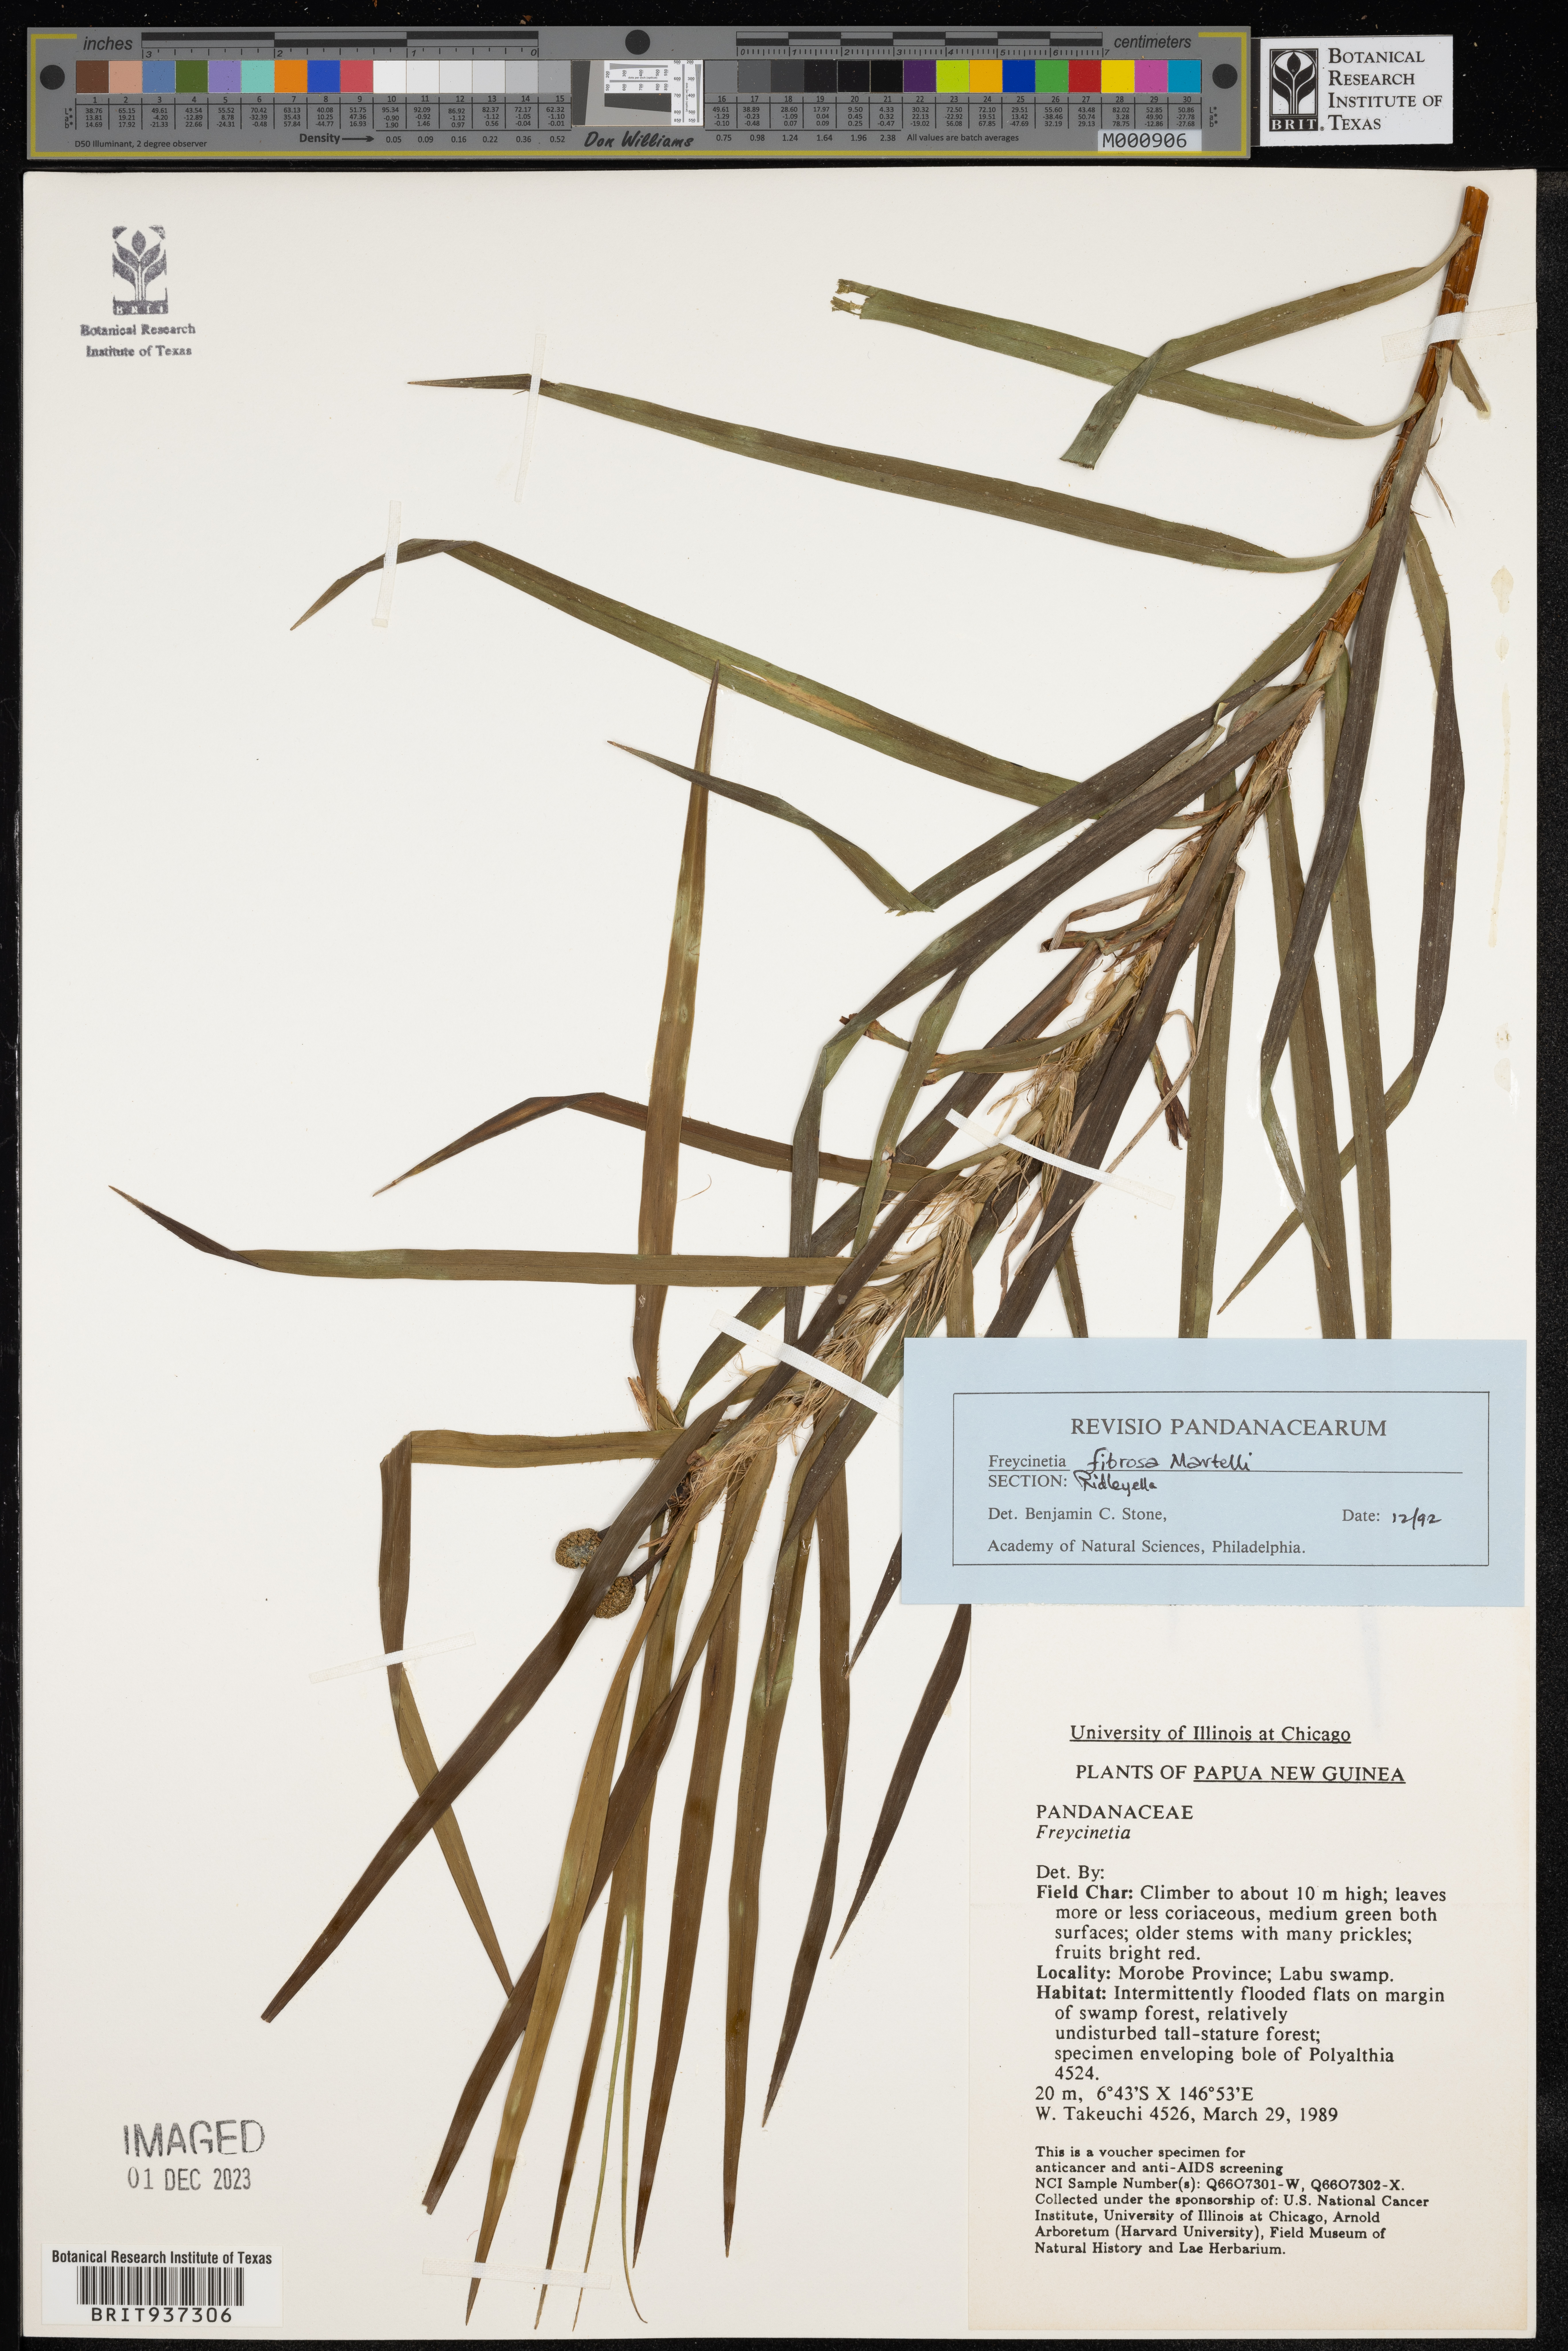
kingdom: Plantae
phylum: Tracheophyta
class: Liliopsida
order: Pandanales
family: Pandanaceae
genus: Freycinetia
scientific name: Freycinetia
